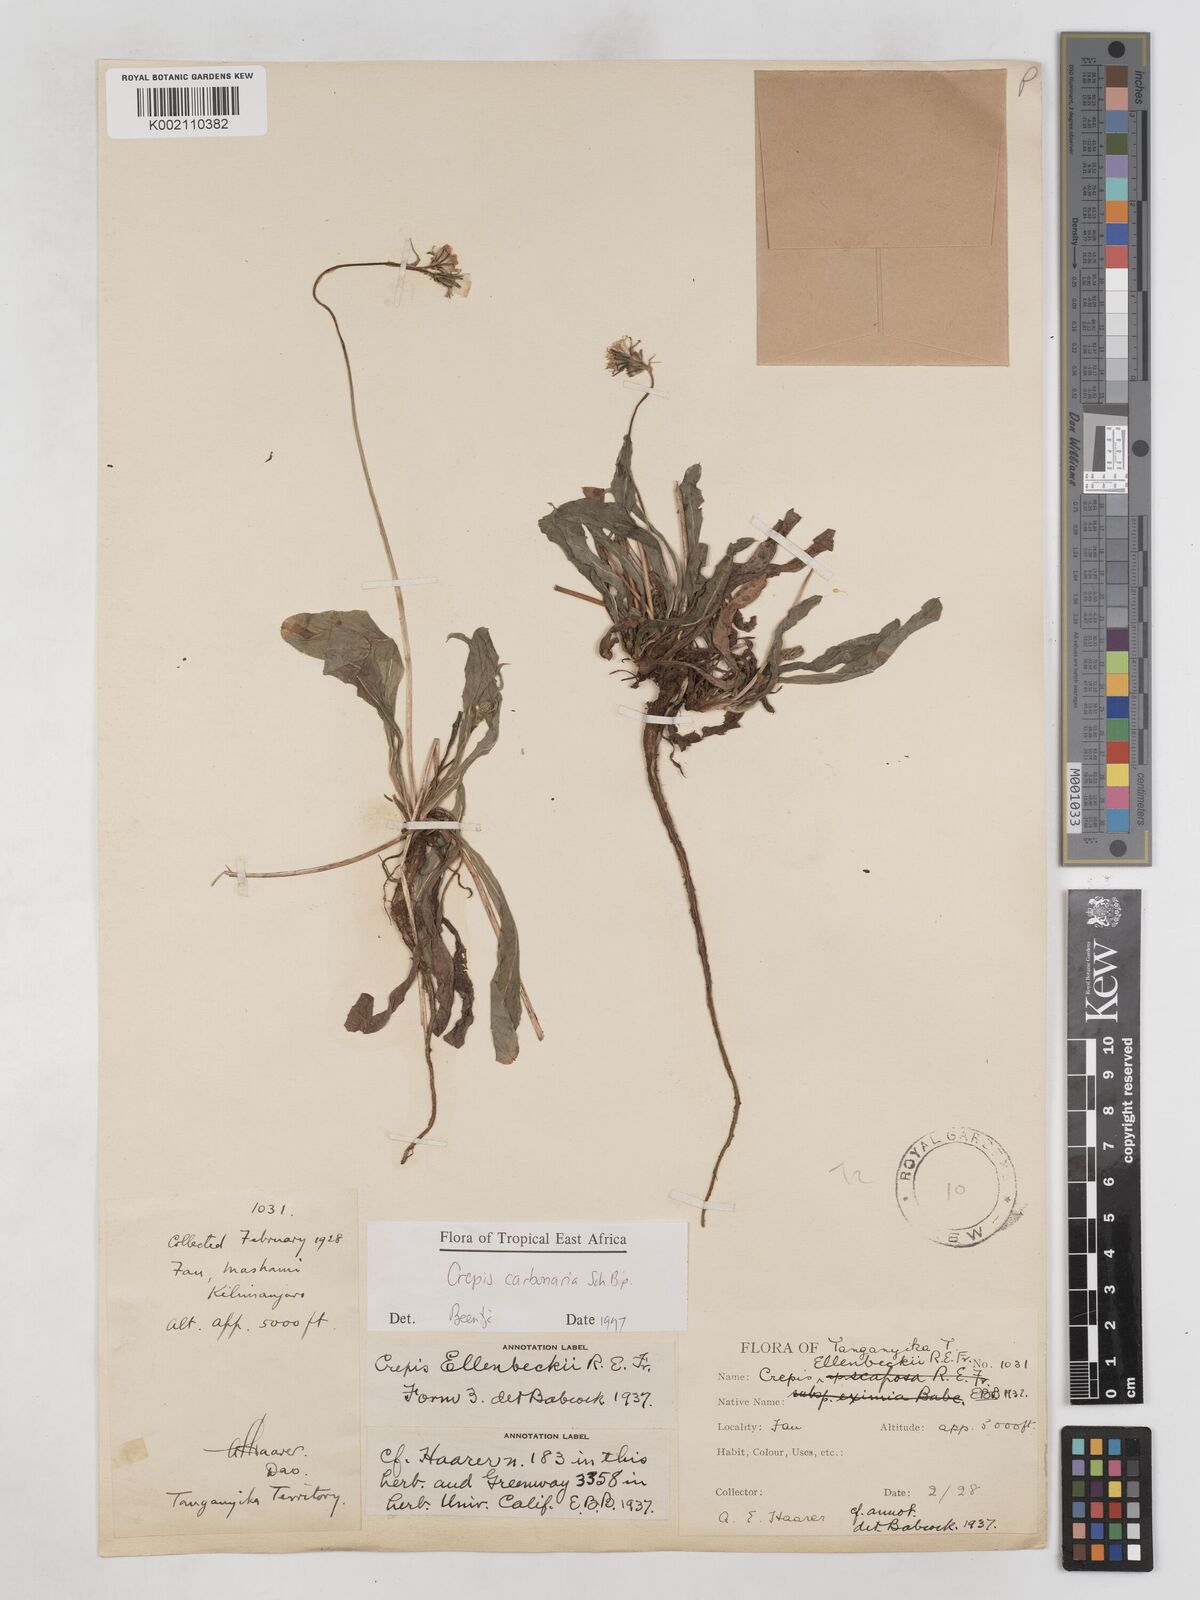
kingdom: Plantae
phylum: Tracheophyta
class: Magnoliopsida
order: Asterales
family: Asteraceae
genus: Crepis
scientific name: Crepis carbonaria
